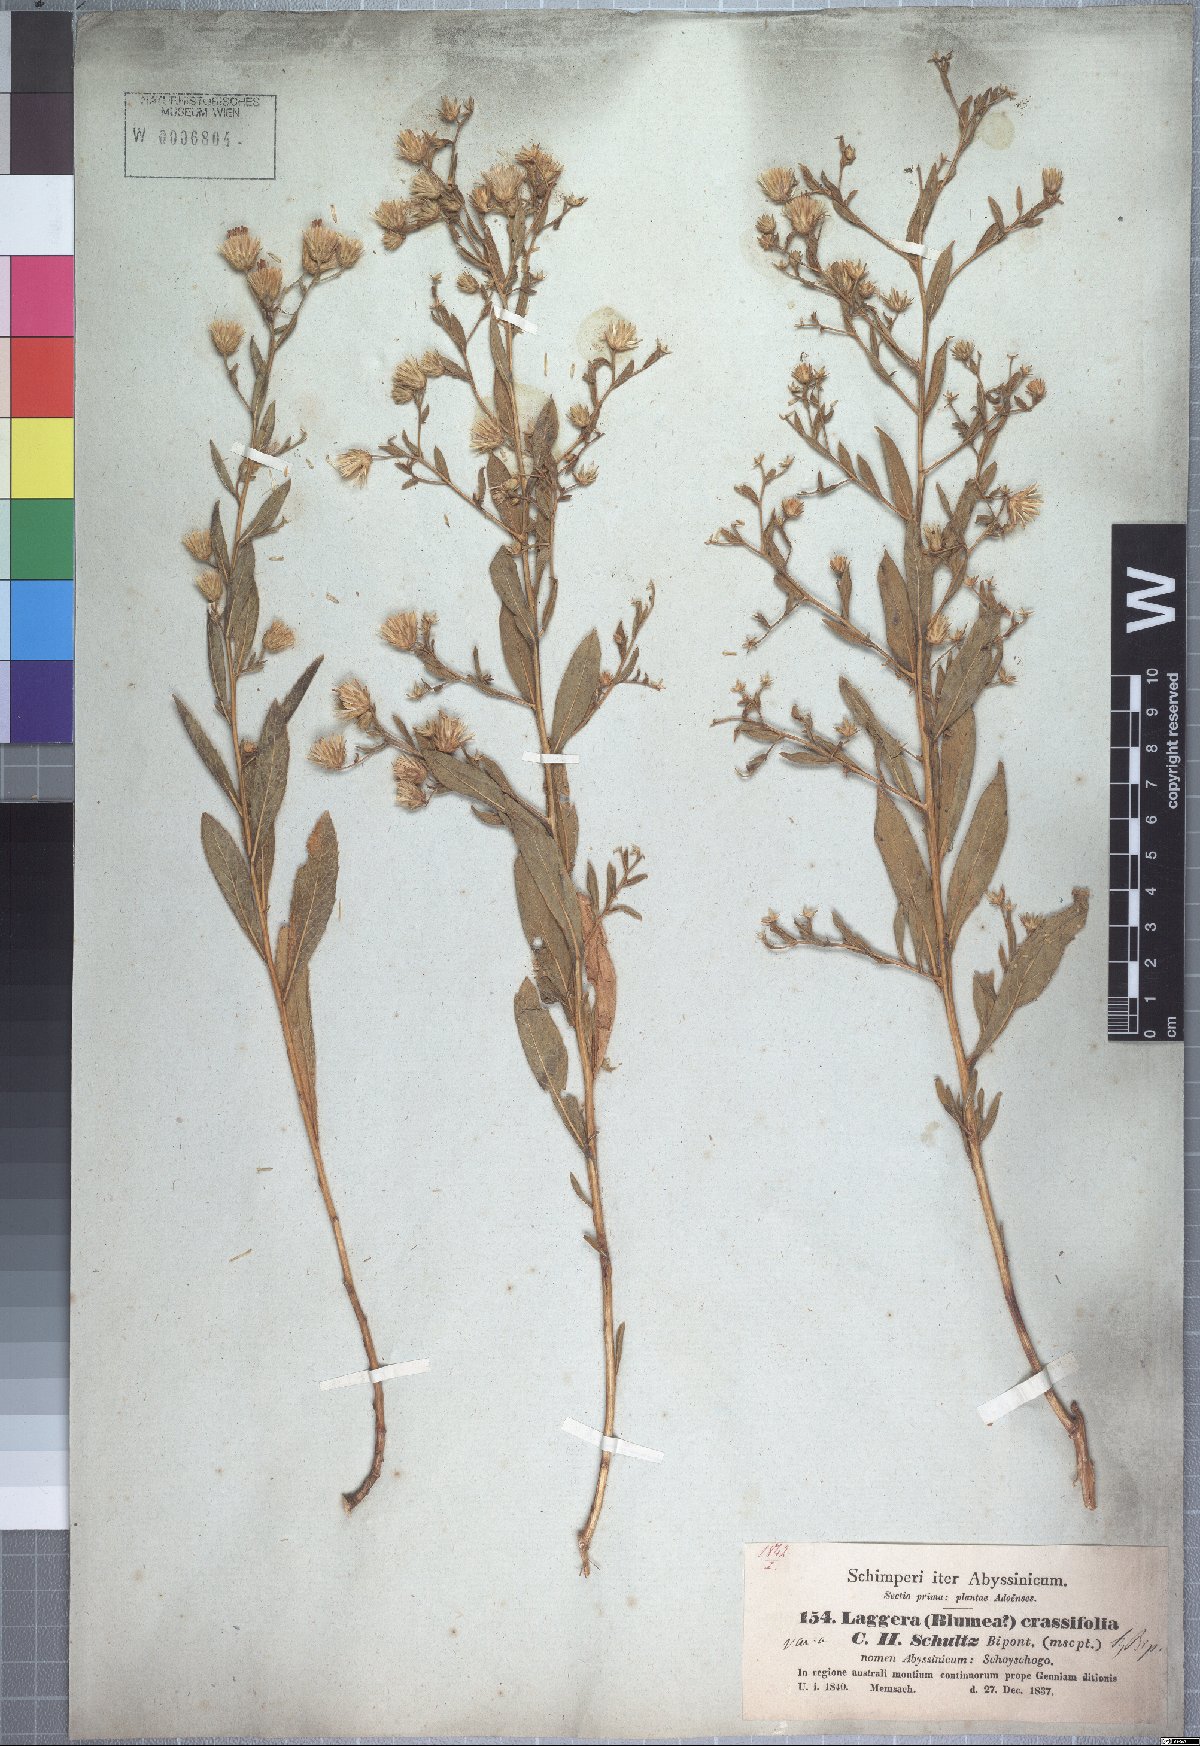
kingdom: Plantae
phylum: Tracheophyta
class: Magnoliopsida
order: Asterales
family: Asteraceae
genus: Laggera
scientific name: Laggera crassifolia
